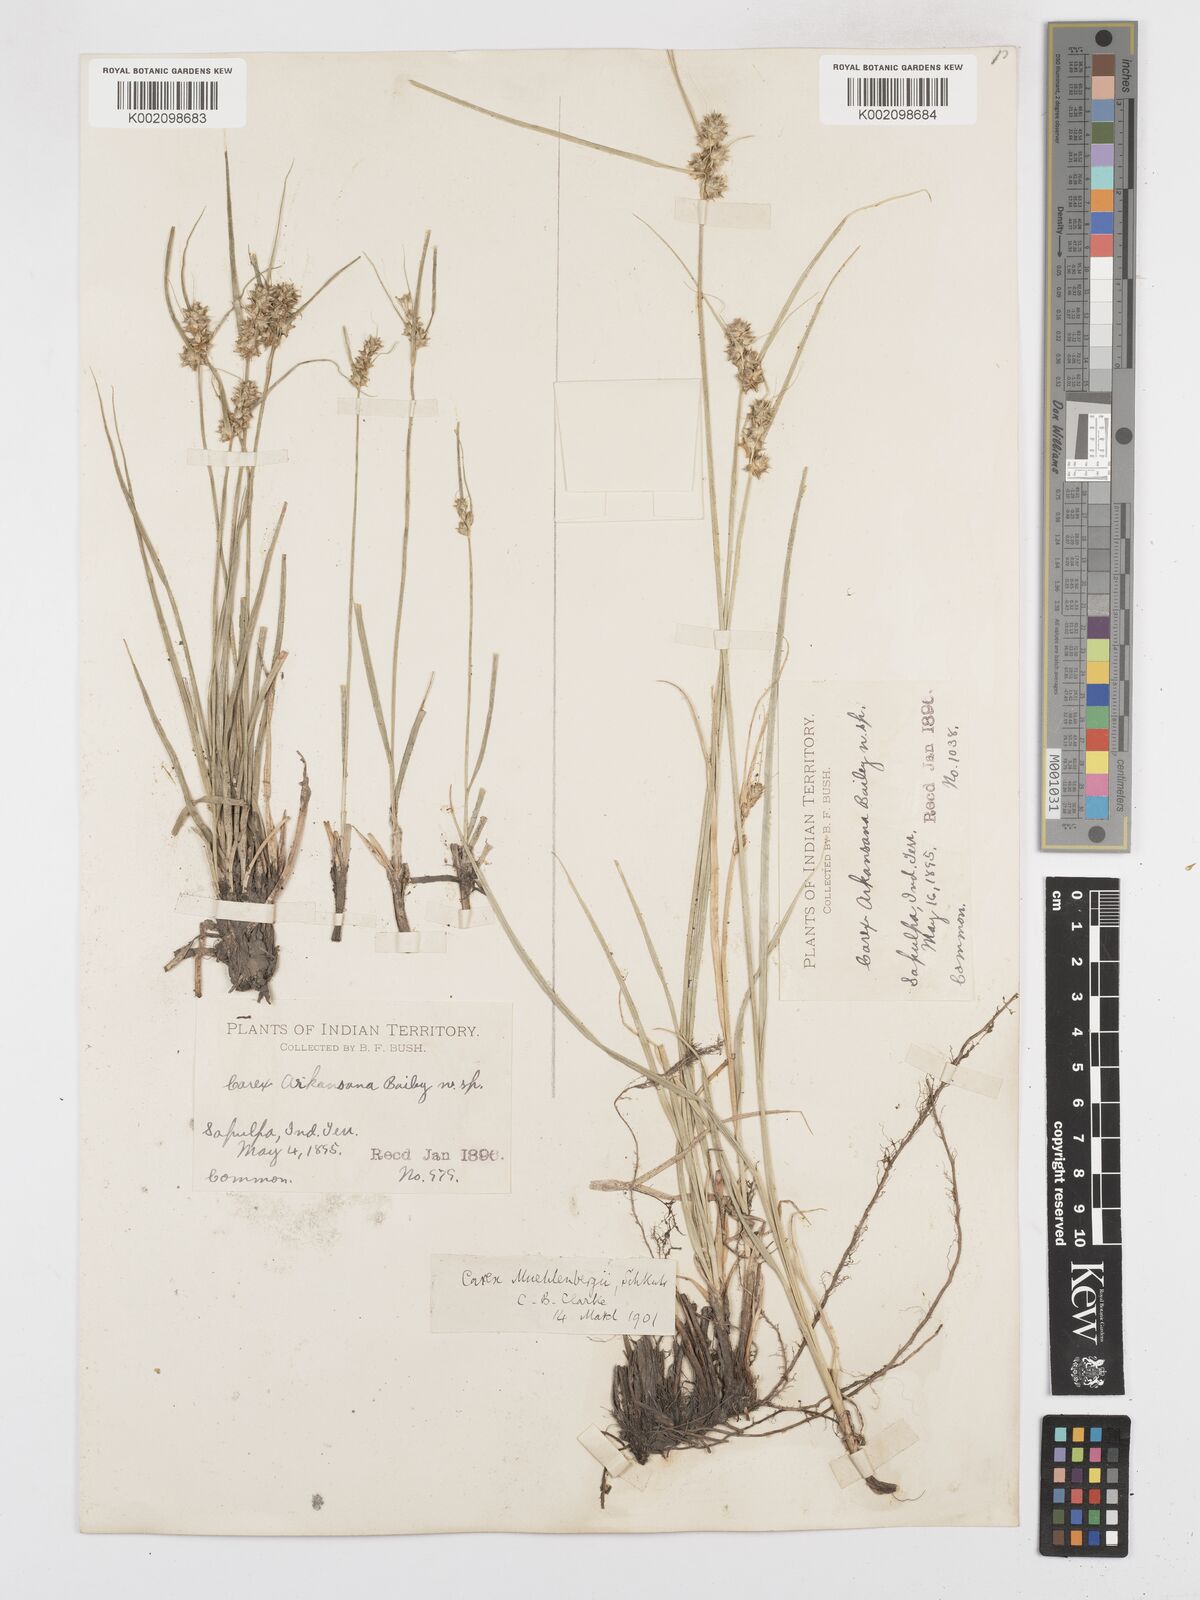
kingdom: Plantae
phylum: Tracheophyta
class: Liliopsida
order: Poales
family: Cyperaceae
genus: Carex
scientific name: Carex arkansana
